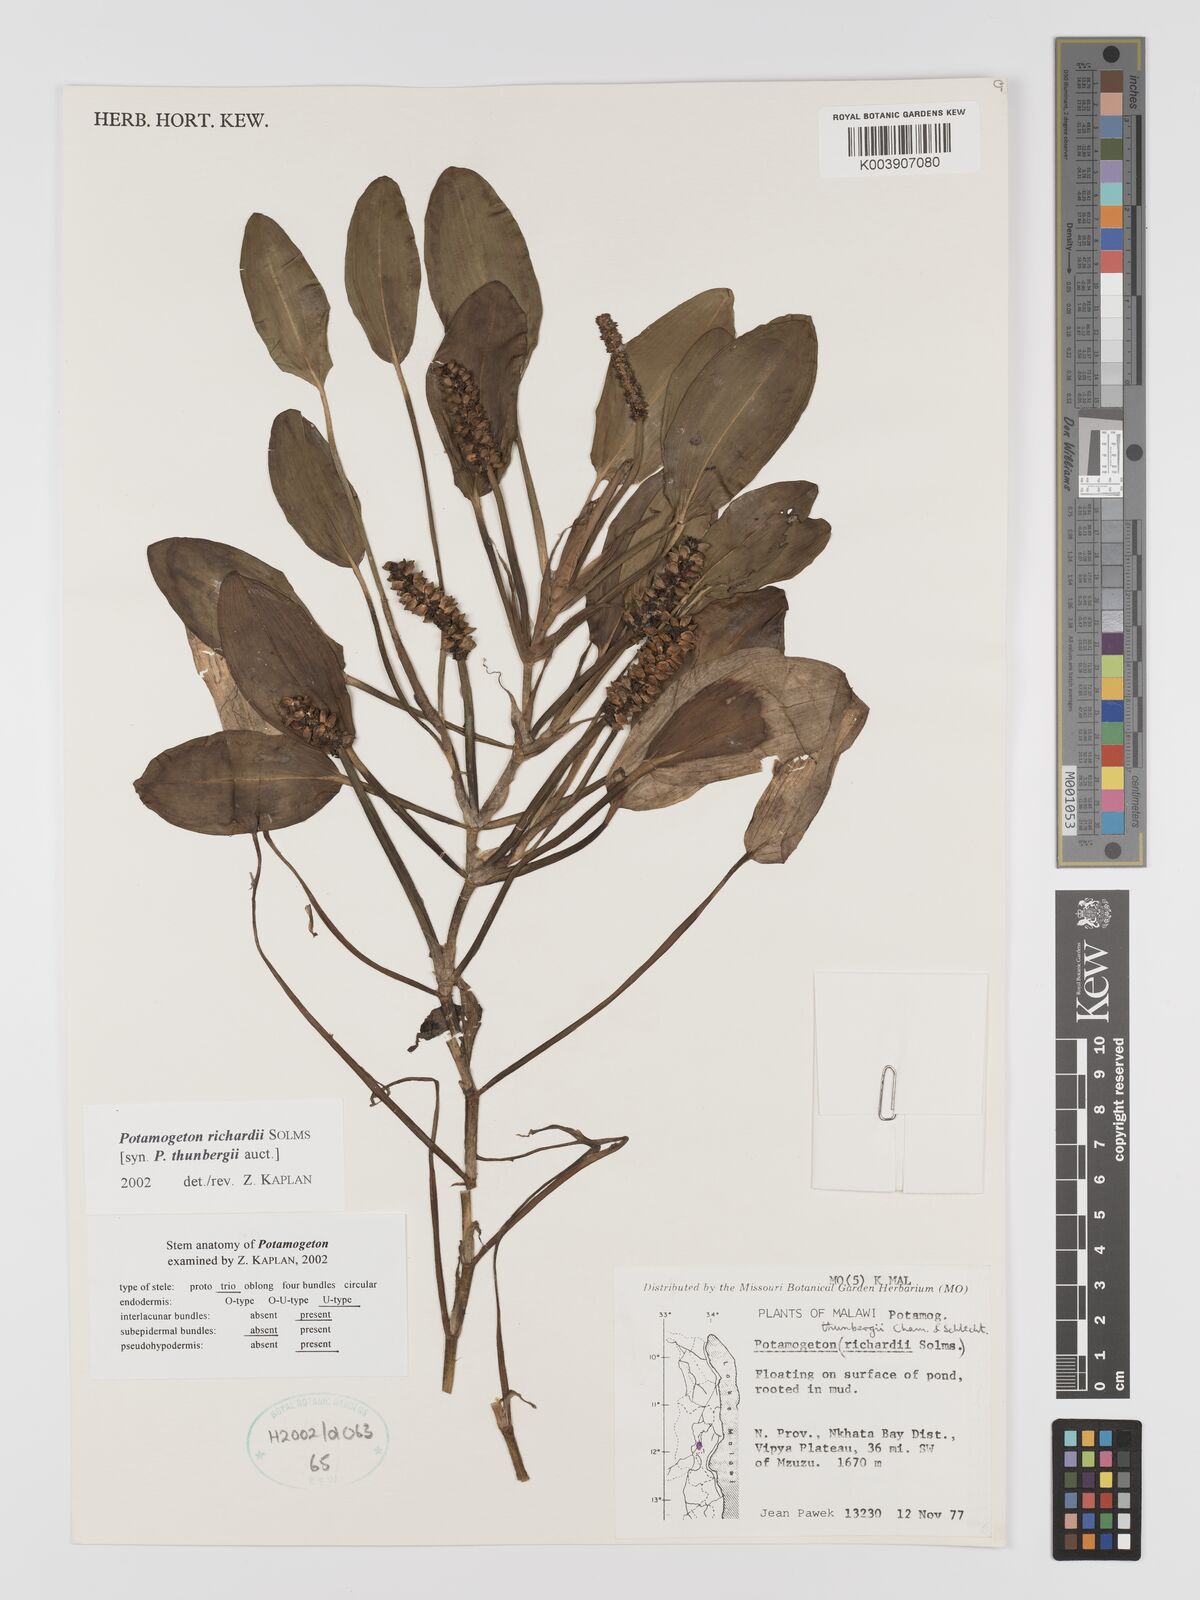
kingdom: Plantae
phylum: Tracheophyta
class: Liliopsida
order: Alismatales
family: Potamogetonaceae
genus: Potamogeton
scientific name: Potamogeton nodosus
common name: Loddon pondweed
